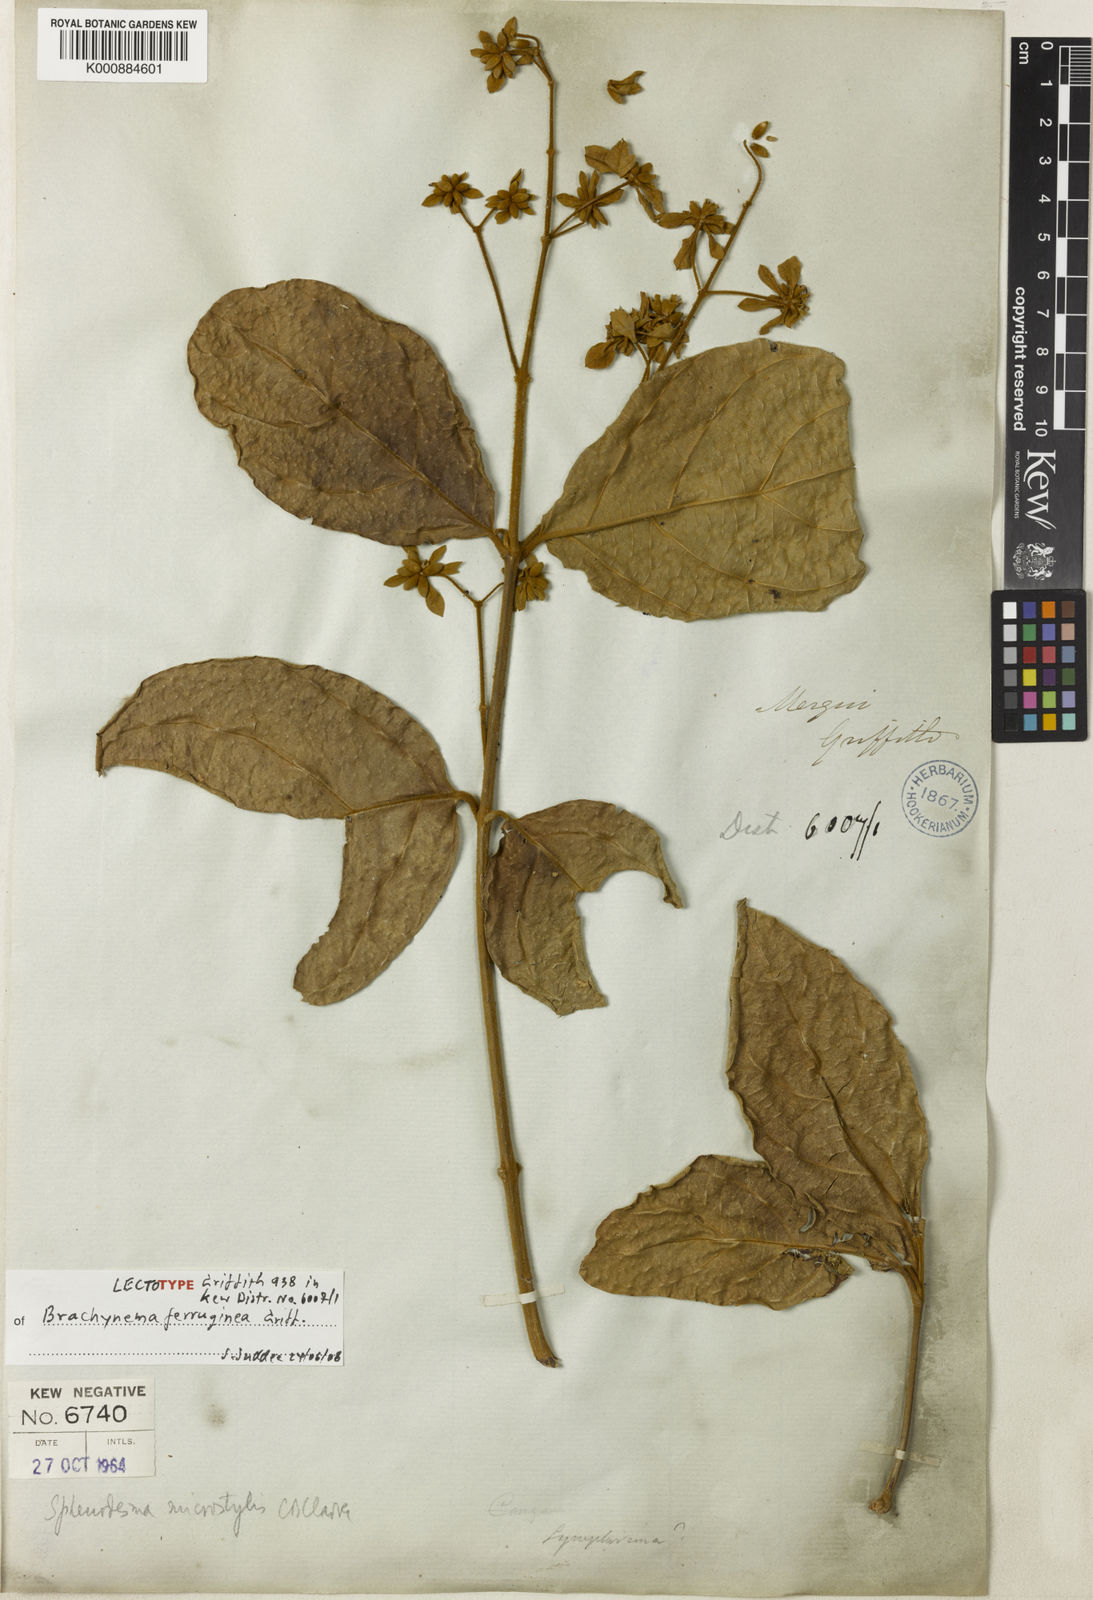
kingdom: Plantae
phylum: Tracheophyta
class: Magnoliopsida
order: Lamiales
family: Lamiaceae
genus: Sphenodesme
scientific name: Sphenodesme ferruginea
